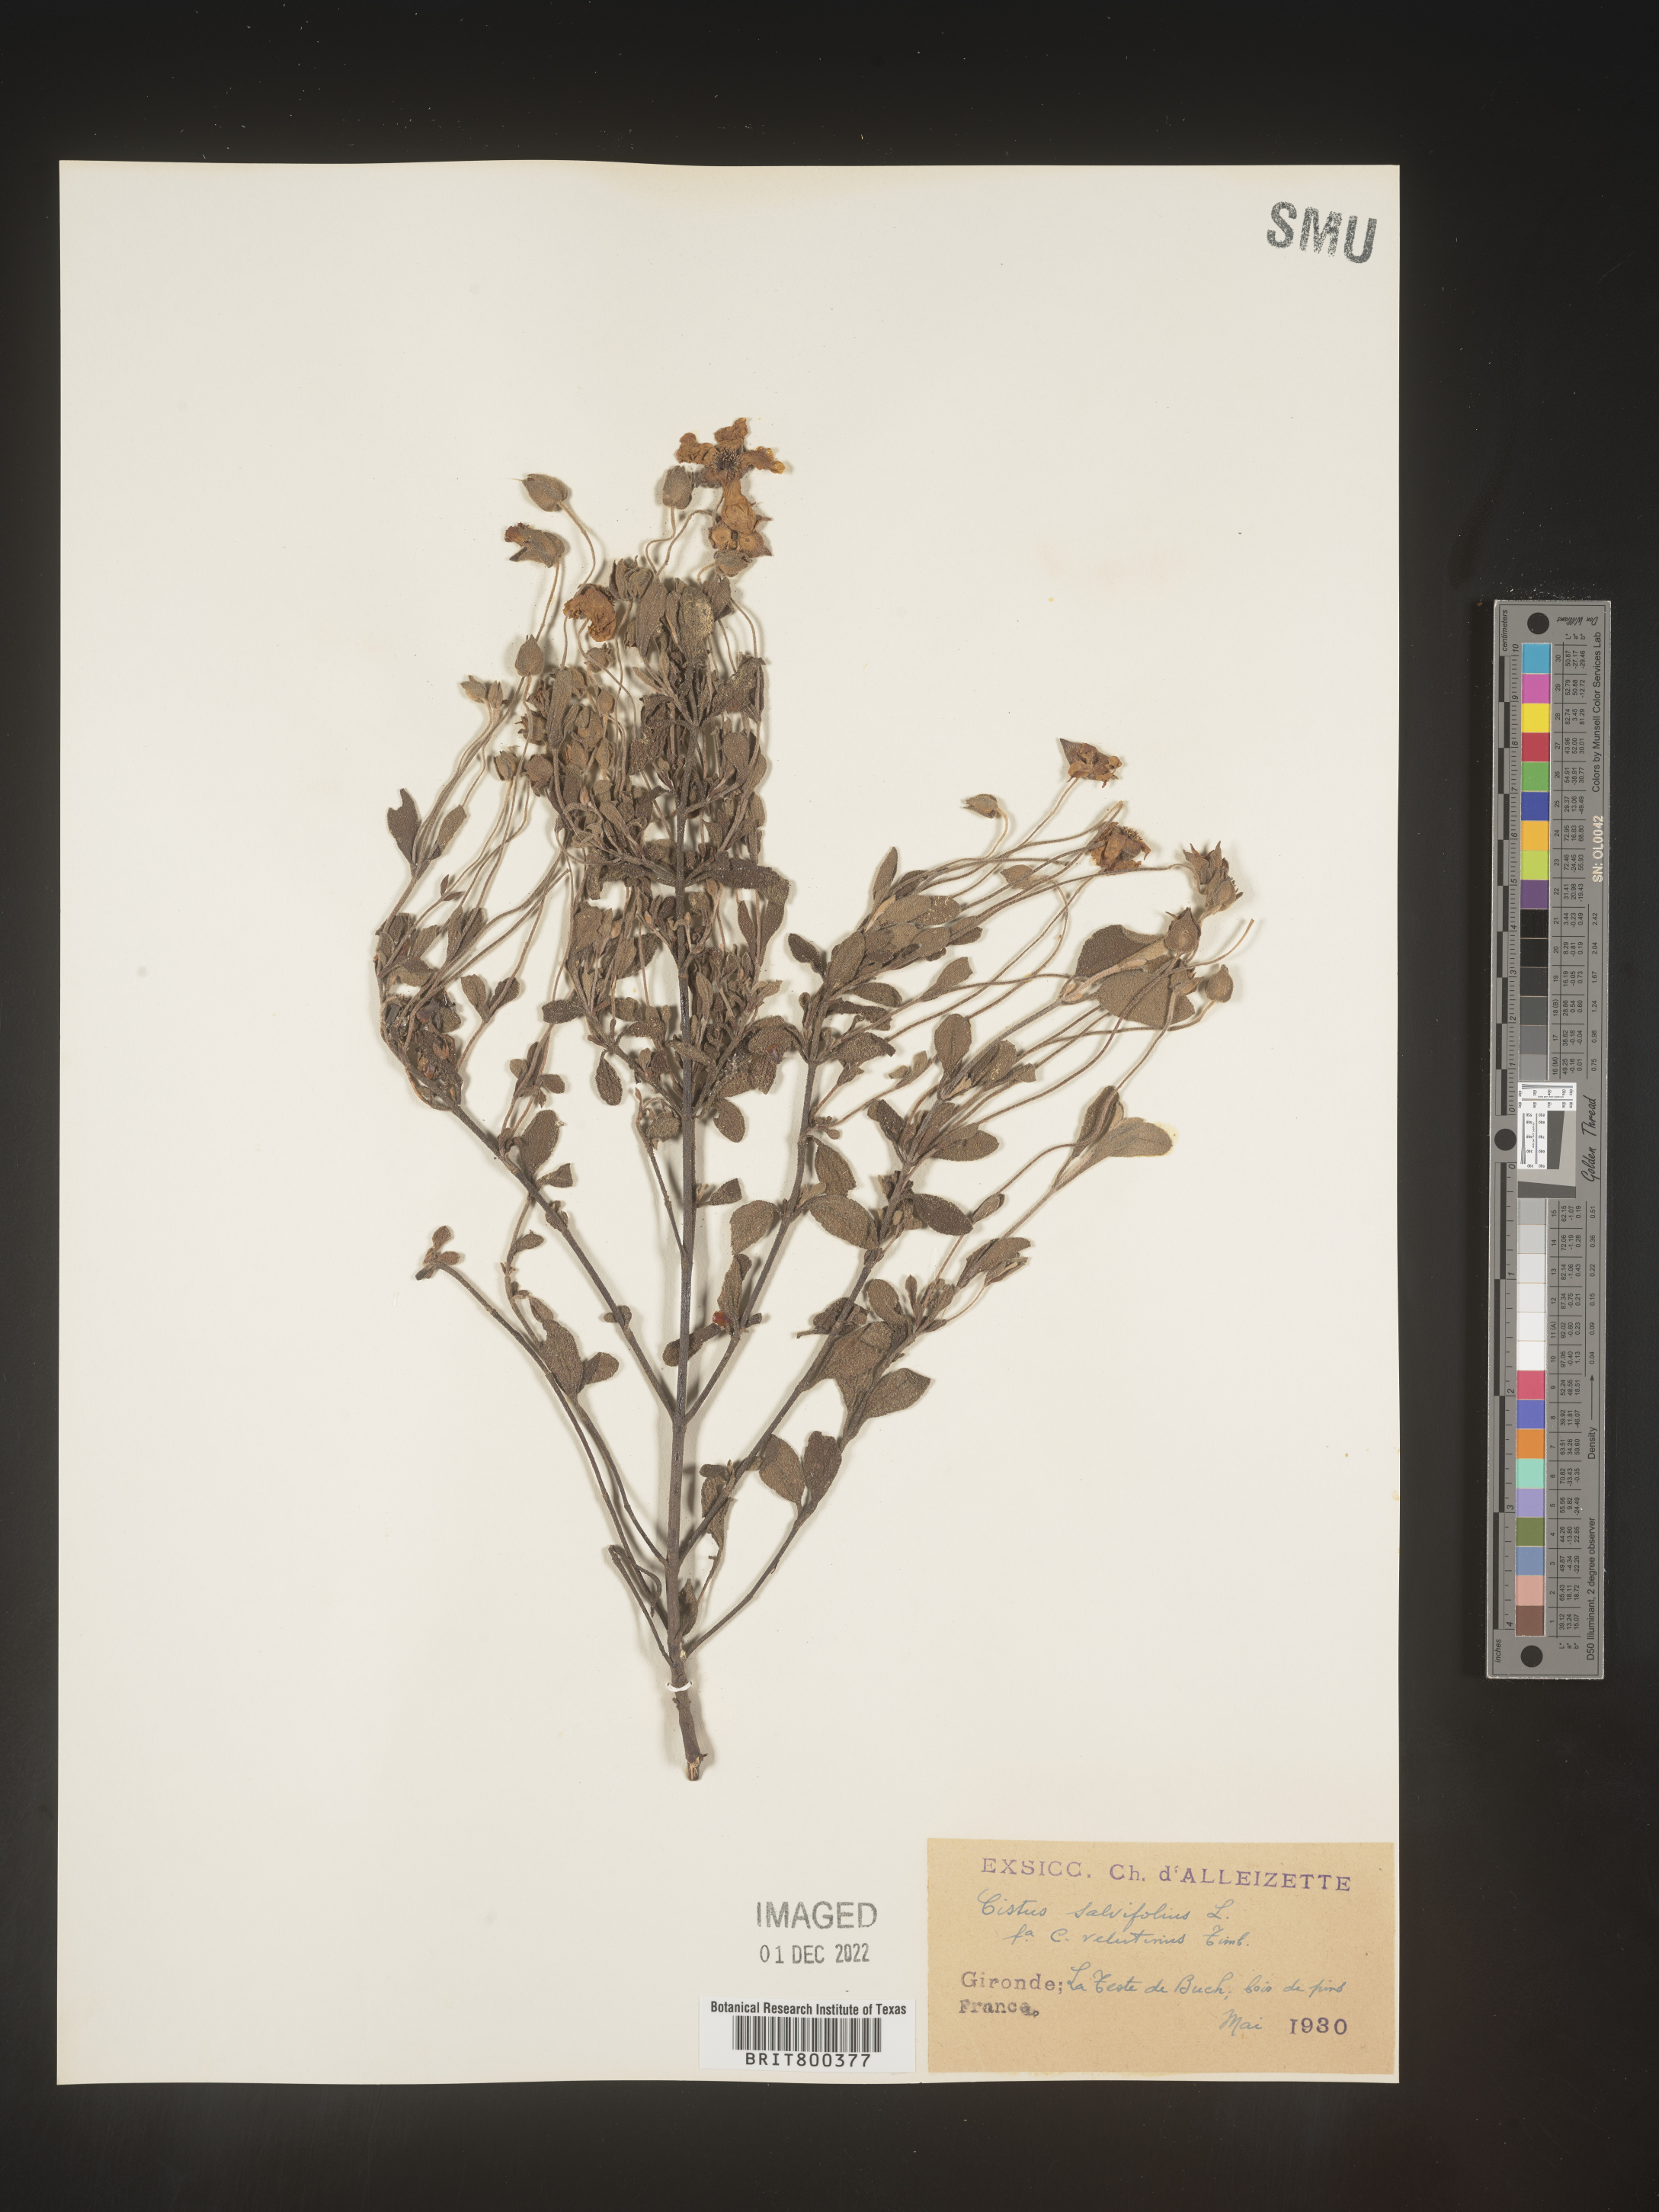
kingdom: Plantae
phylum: Tracheophyta
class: Magnoliopsida
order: Malvales
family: Cistaceae
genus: Cistus
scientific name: Cistus
